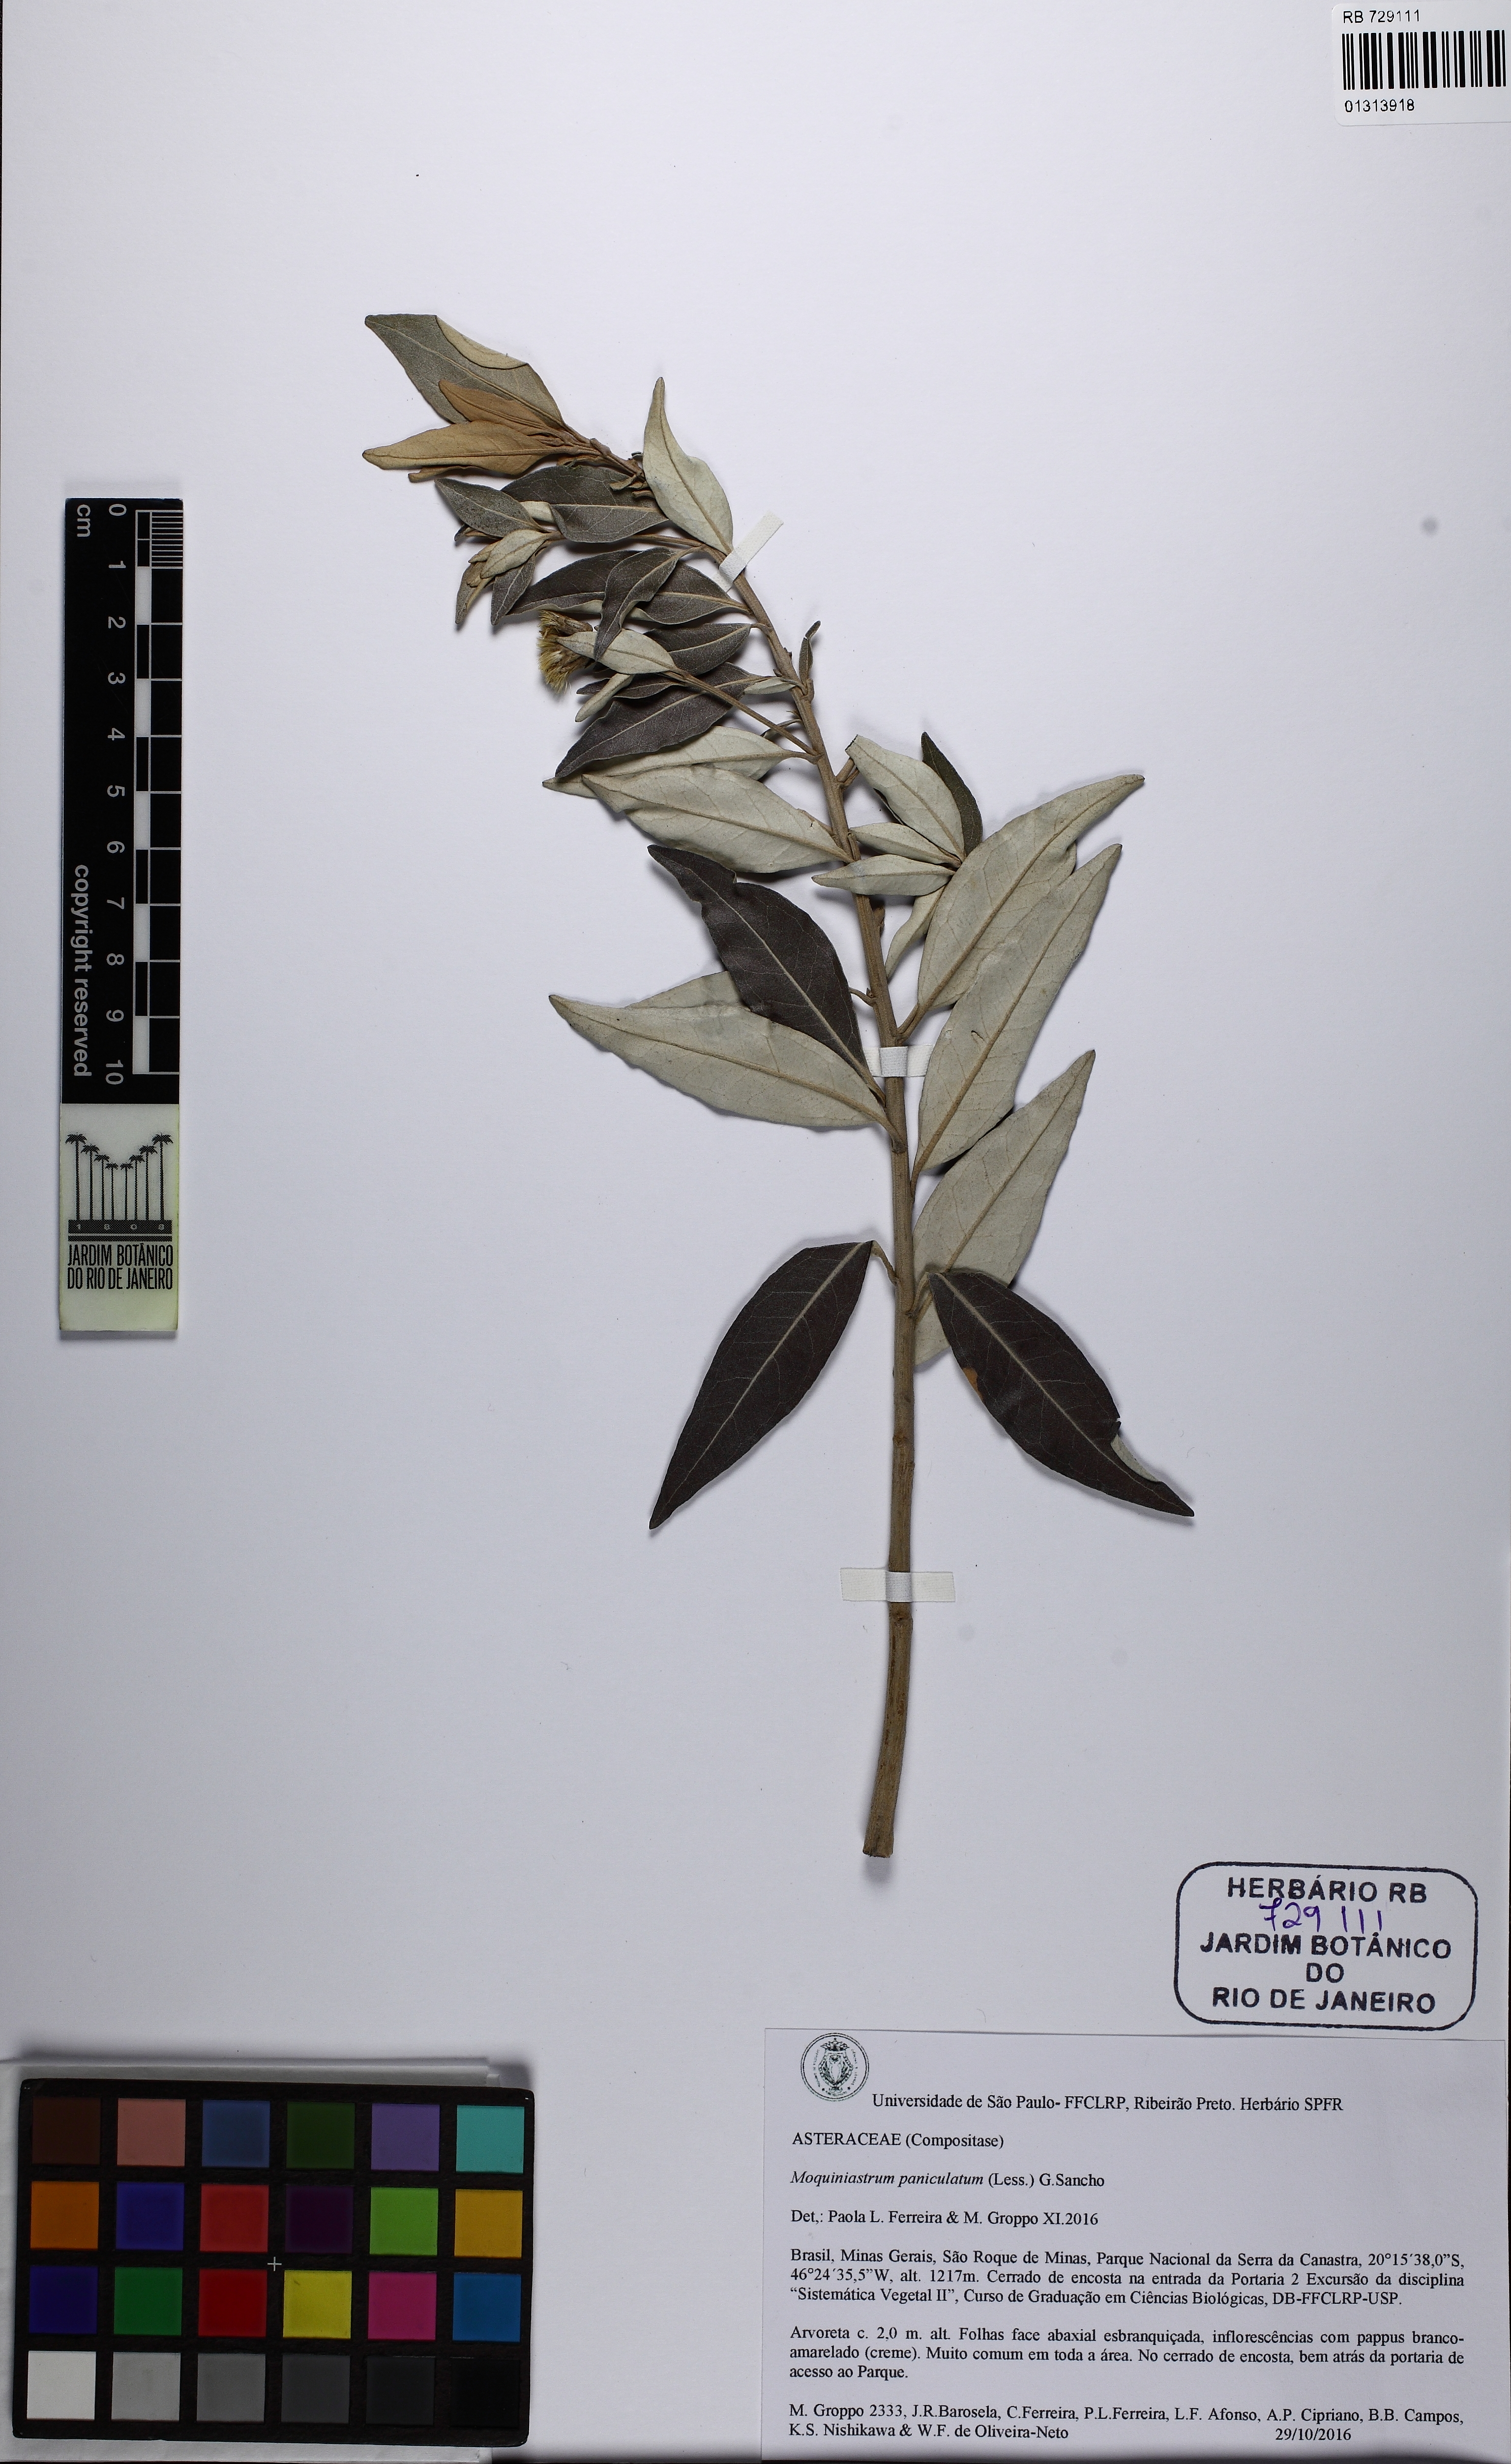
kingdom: Plantae
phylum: Tracheophyta
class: Magnoliopsida
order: Asterales
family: Asteraceae
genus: Moquiniastrum
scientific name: Moquiniastrum paniculatum
